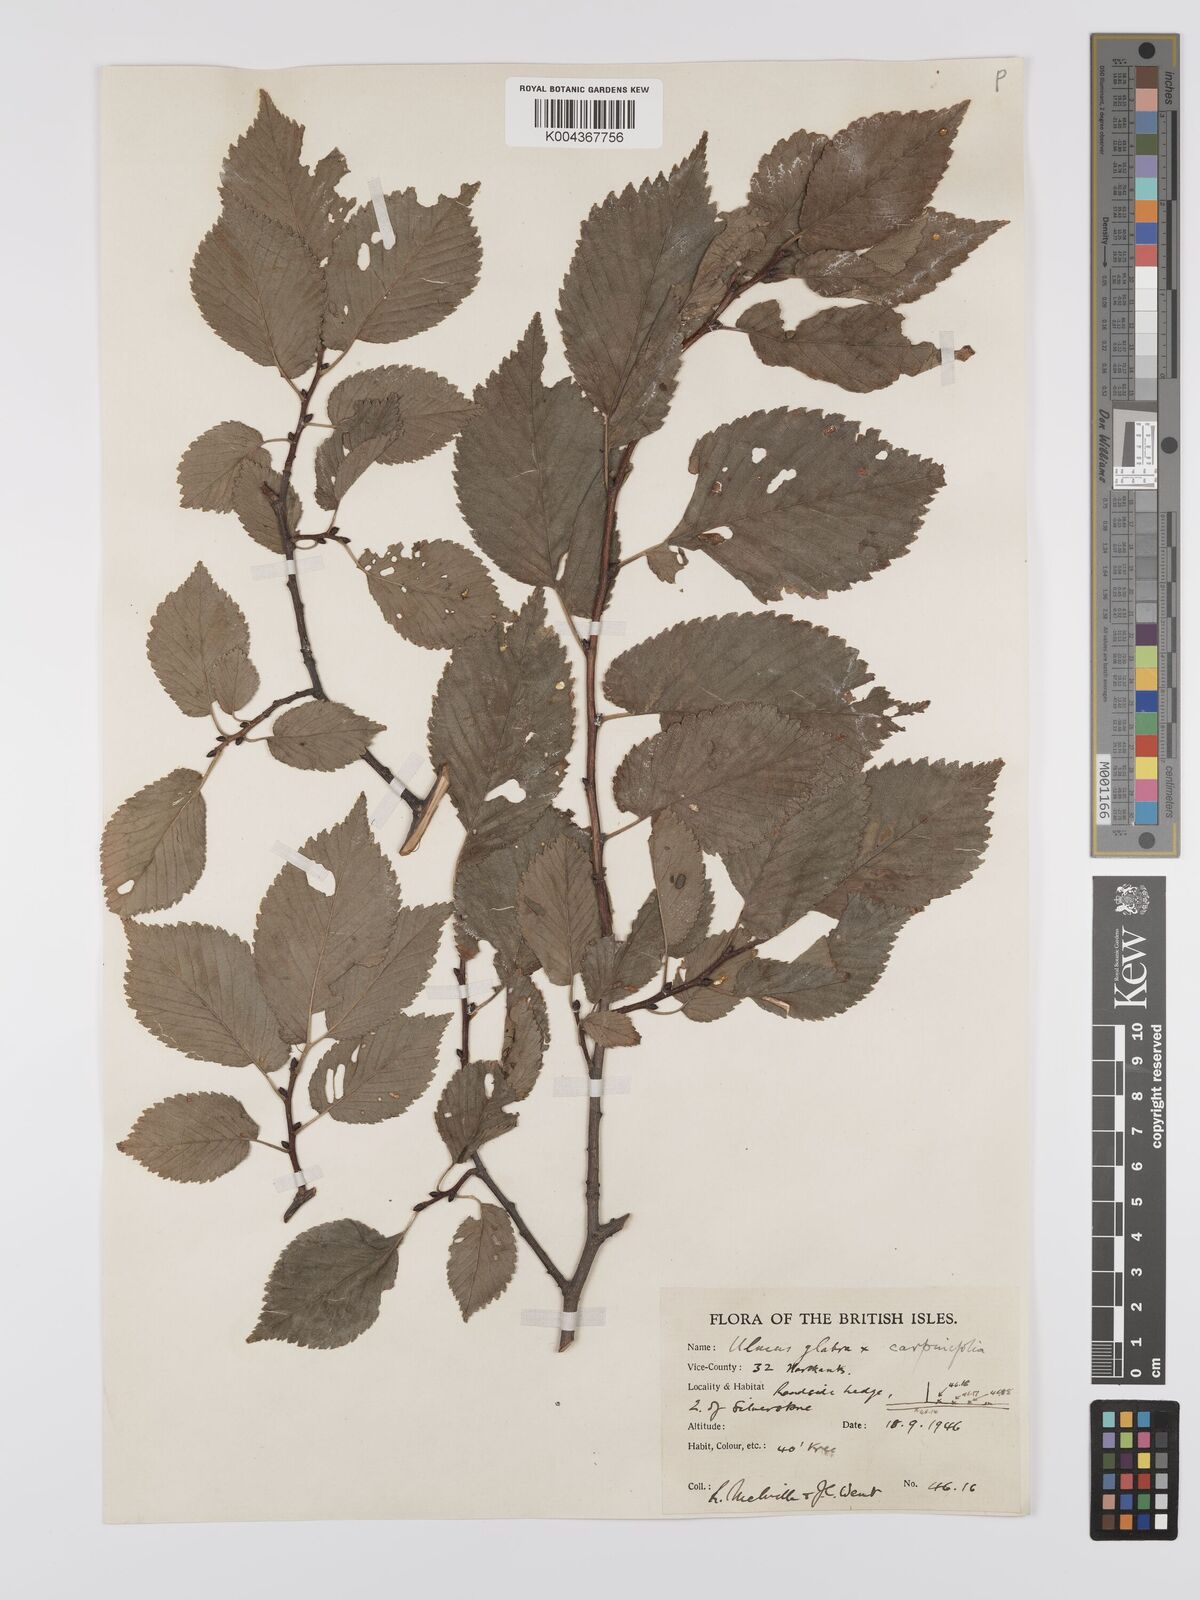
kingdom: Plantae
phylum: Tracheophyta
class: Magnoliopsida
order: Rosales
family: Ulmaceae
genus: Ulmus
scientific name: Ulmus
